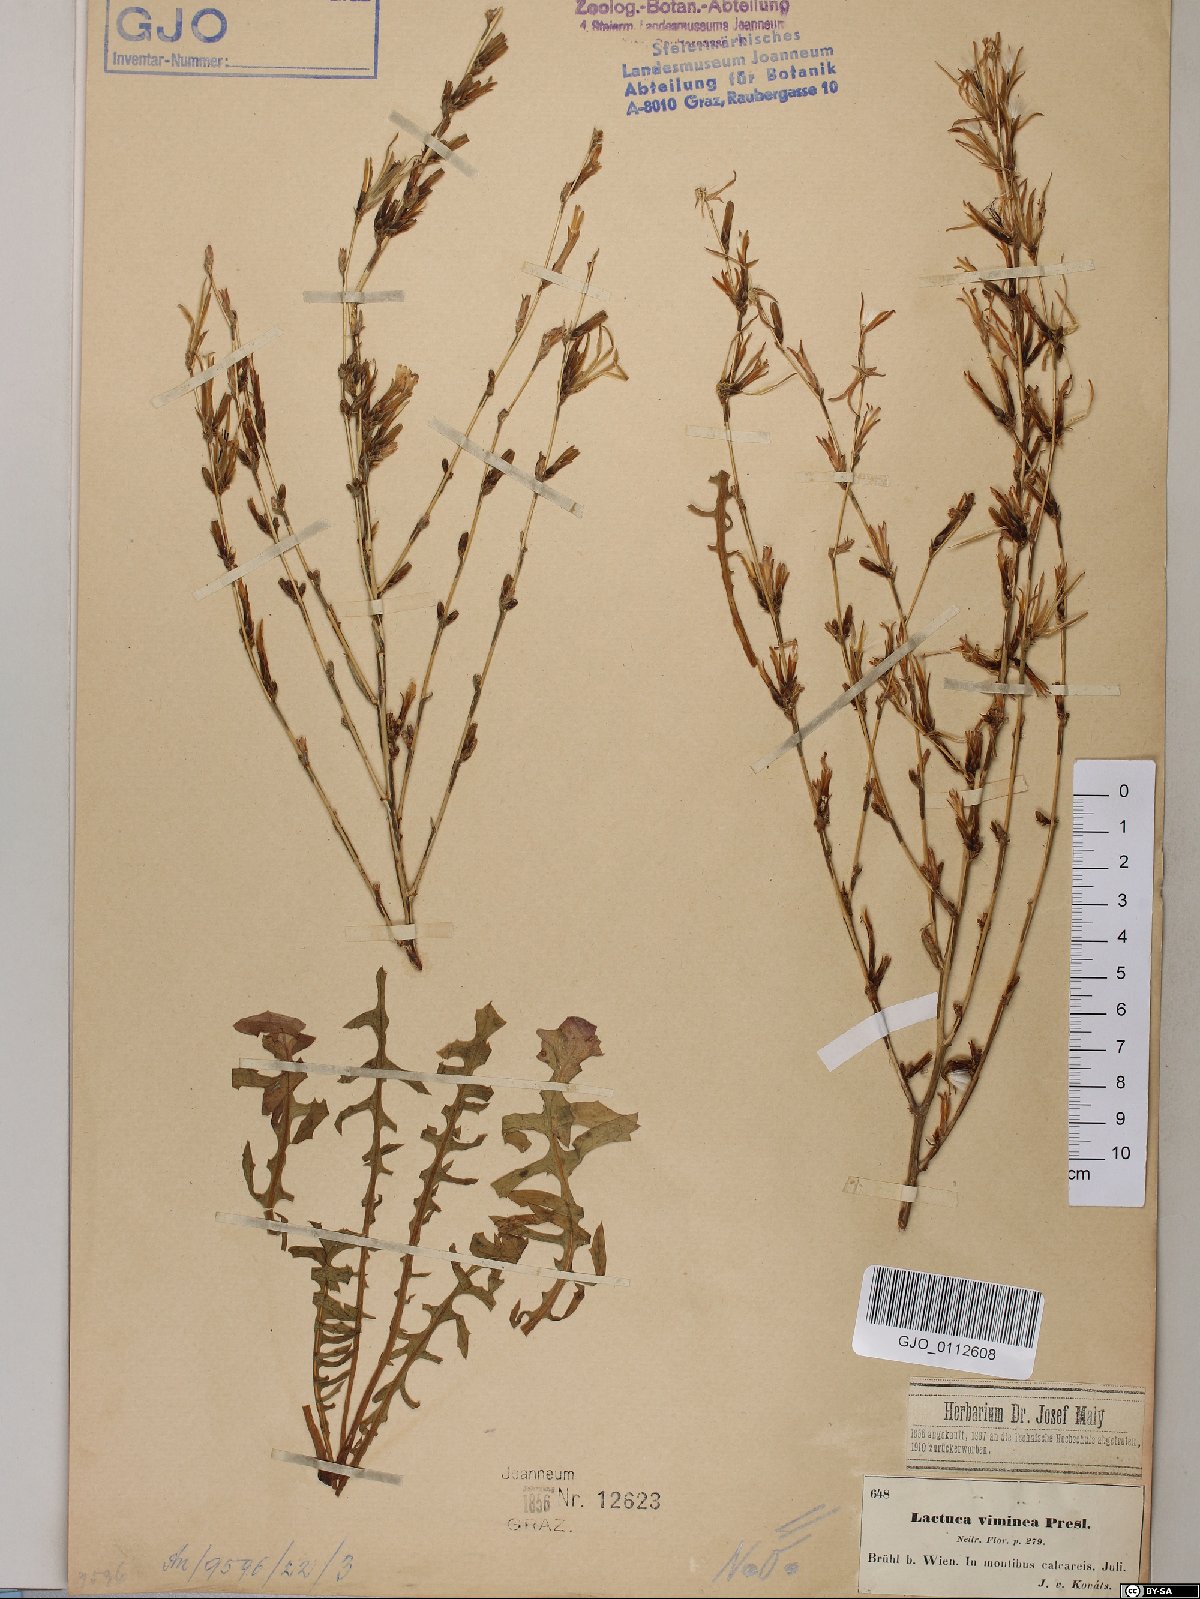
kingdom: Plantae
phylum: Tracheophyta
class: Magnoliopsida
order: Asterales
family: Asteraceae
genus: Lactuca
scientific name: Lactuca viminea
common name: Pliant lettuce
